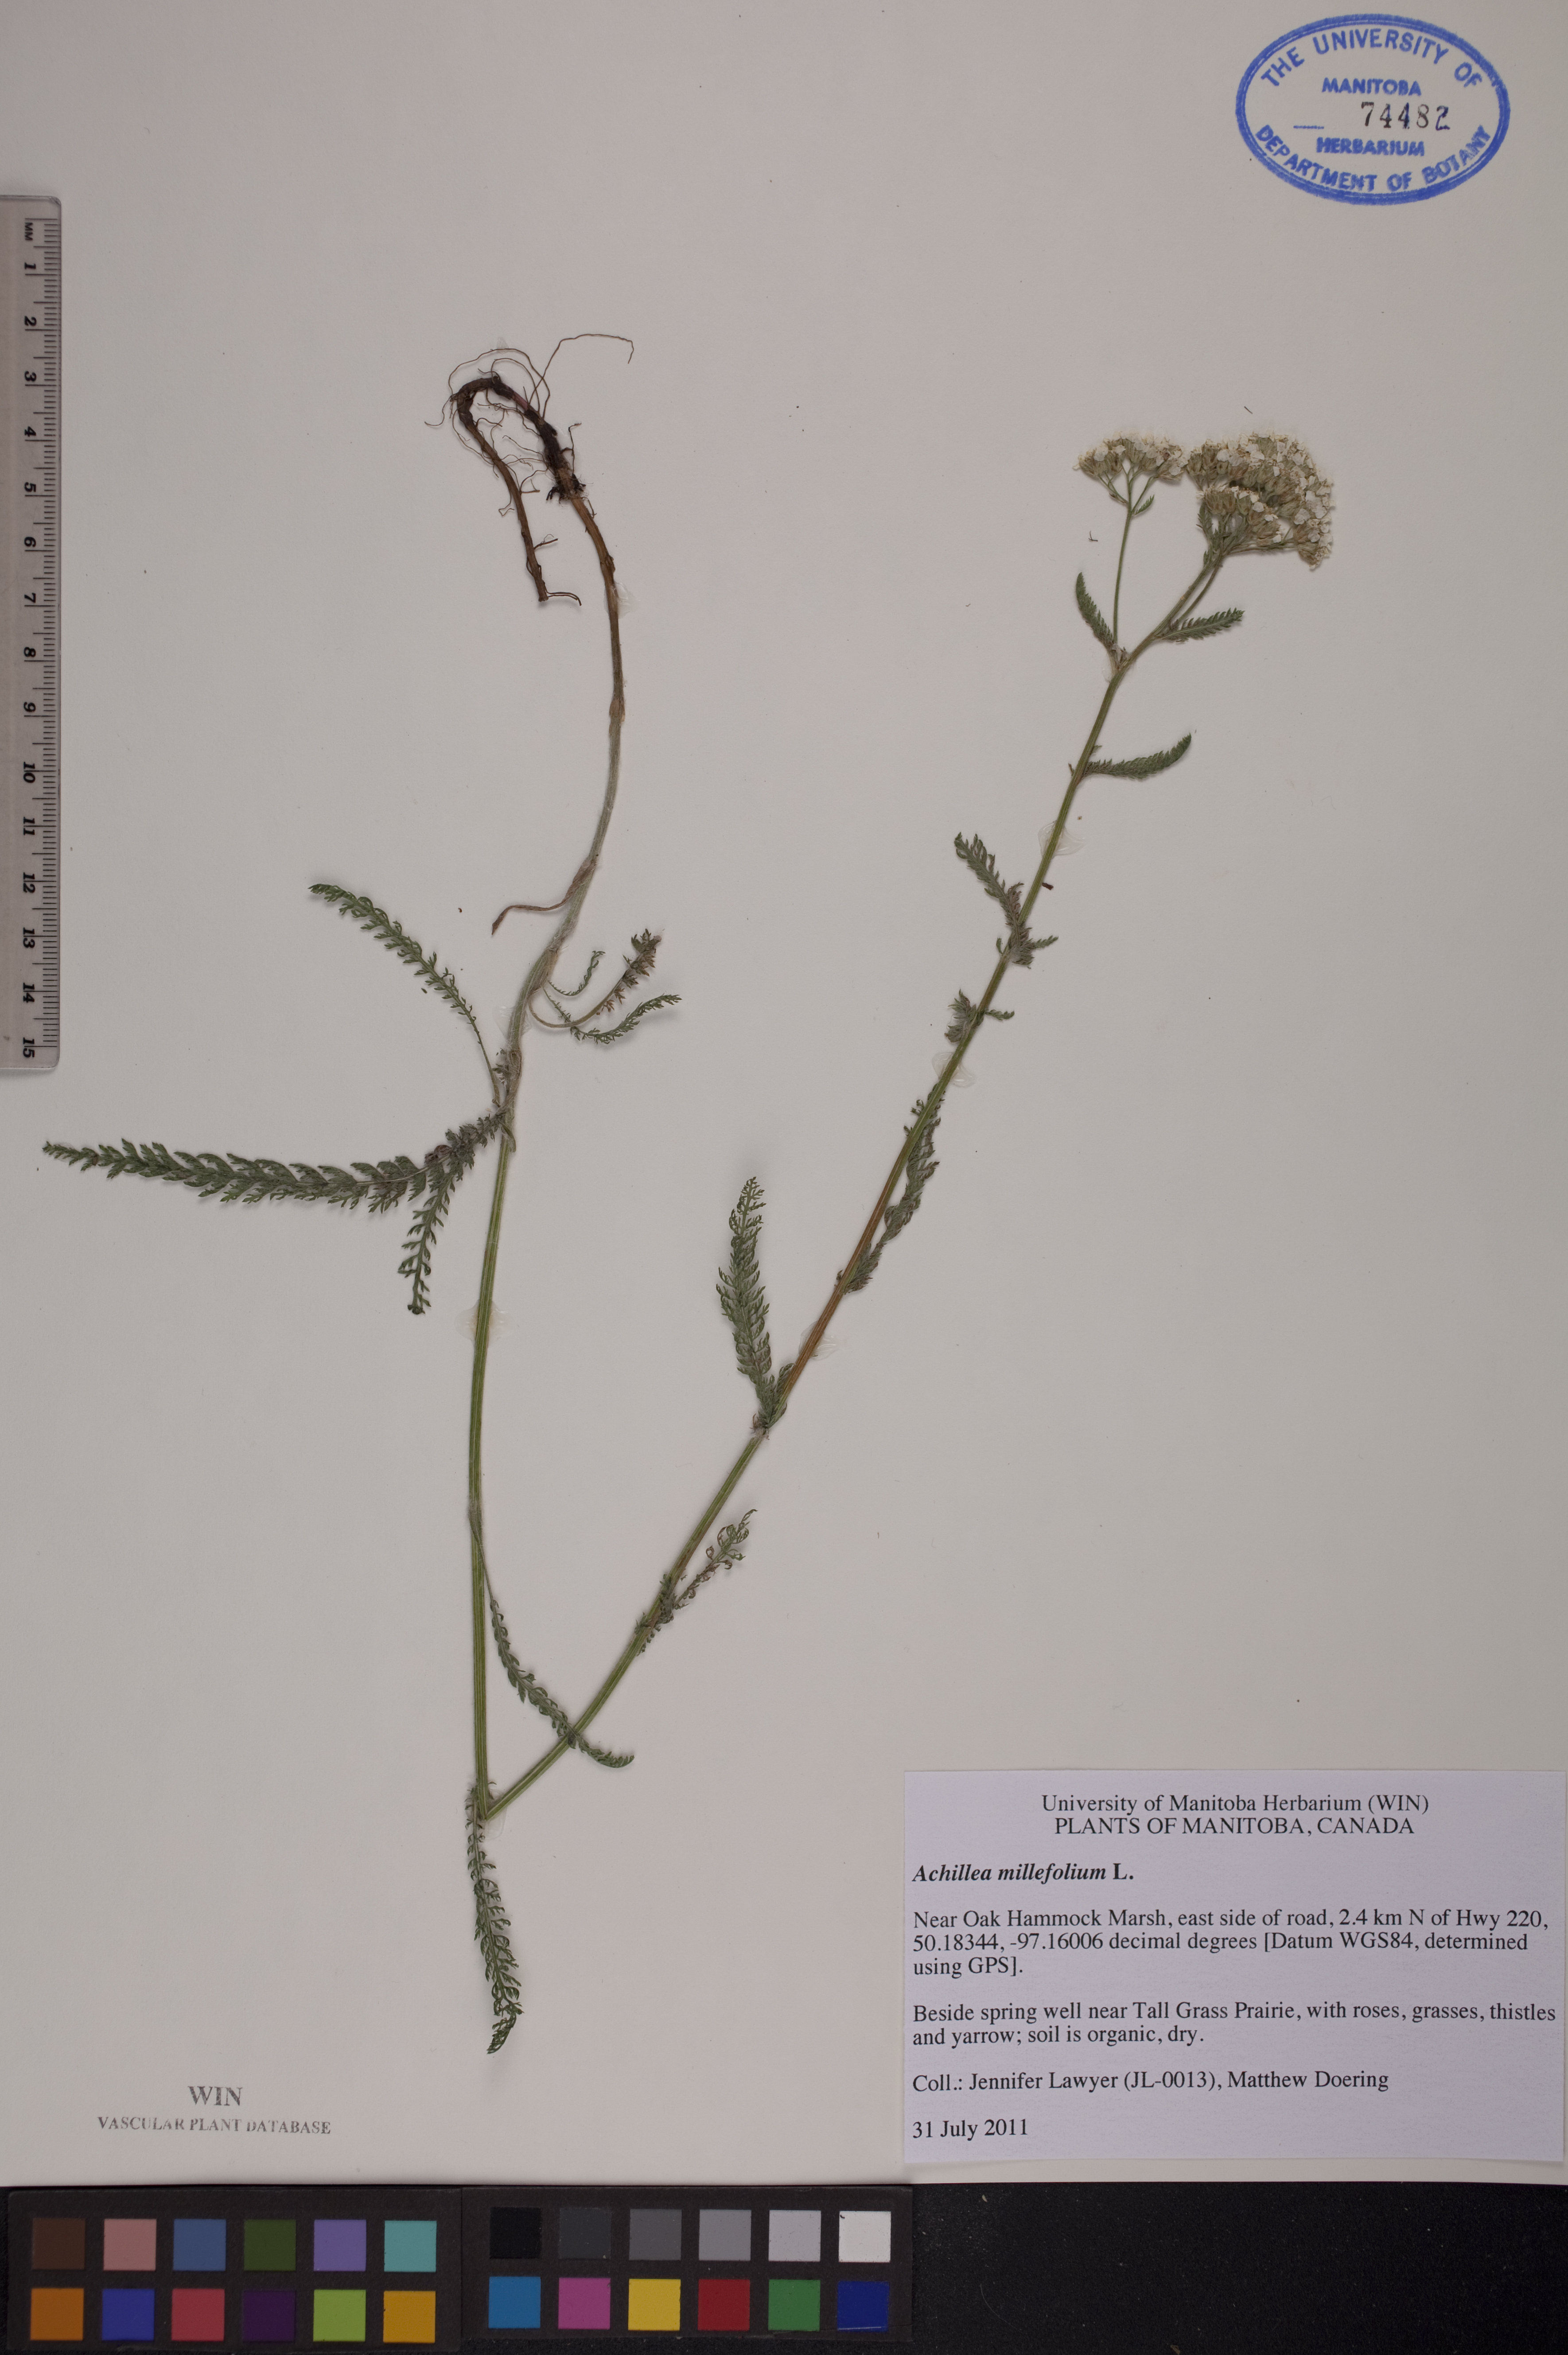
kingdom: Plantae
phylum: Tracheophyta
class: Magnoliopsida
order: Asterales
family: Asteraceae
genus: Achillea
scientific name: Achillea millefolium
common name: Yarrow
